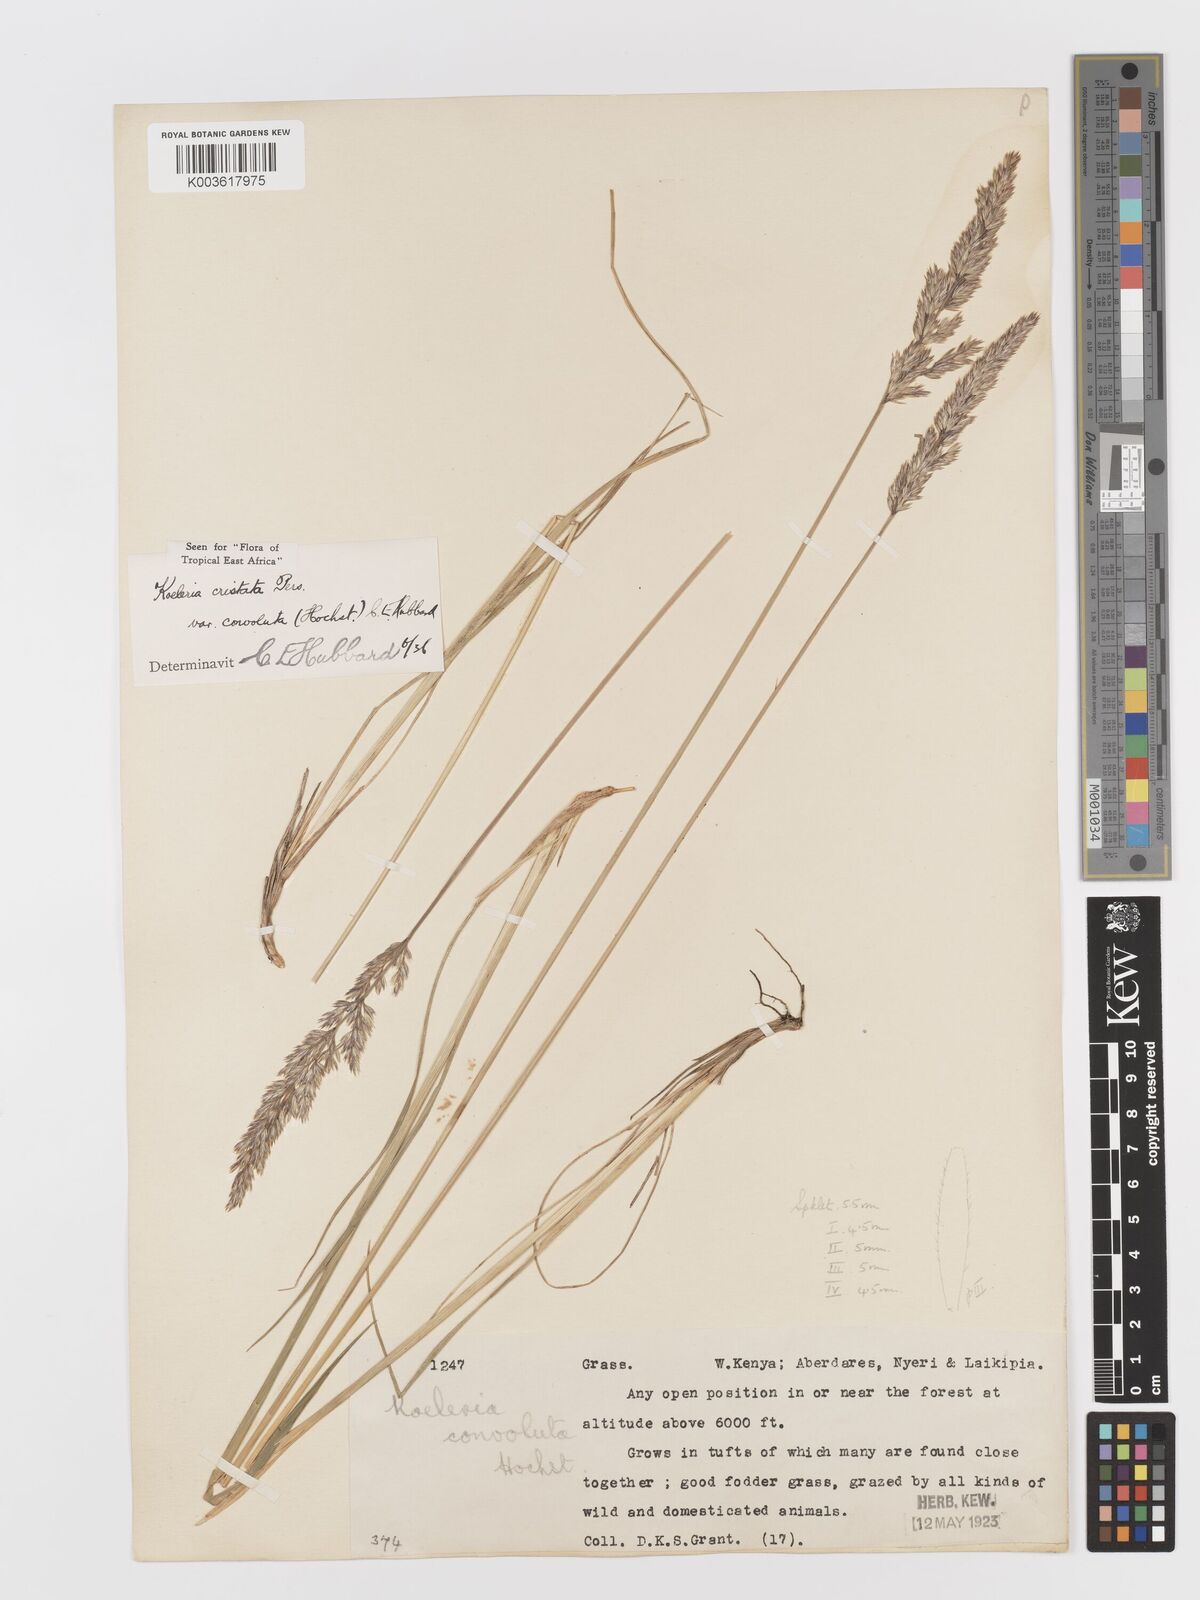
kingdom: Plantae
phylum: Tracheophyta
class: Liliopsida
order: Poales
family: Poaceae
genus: Koeleria
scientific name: Koeleria capensis
